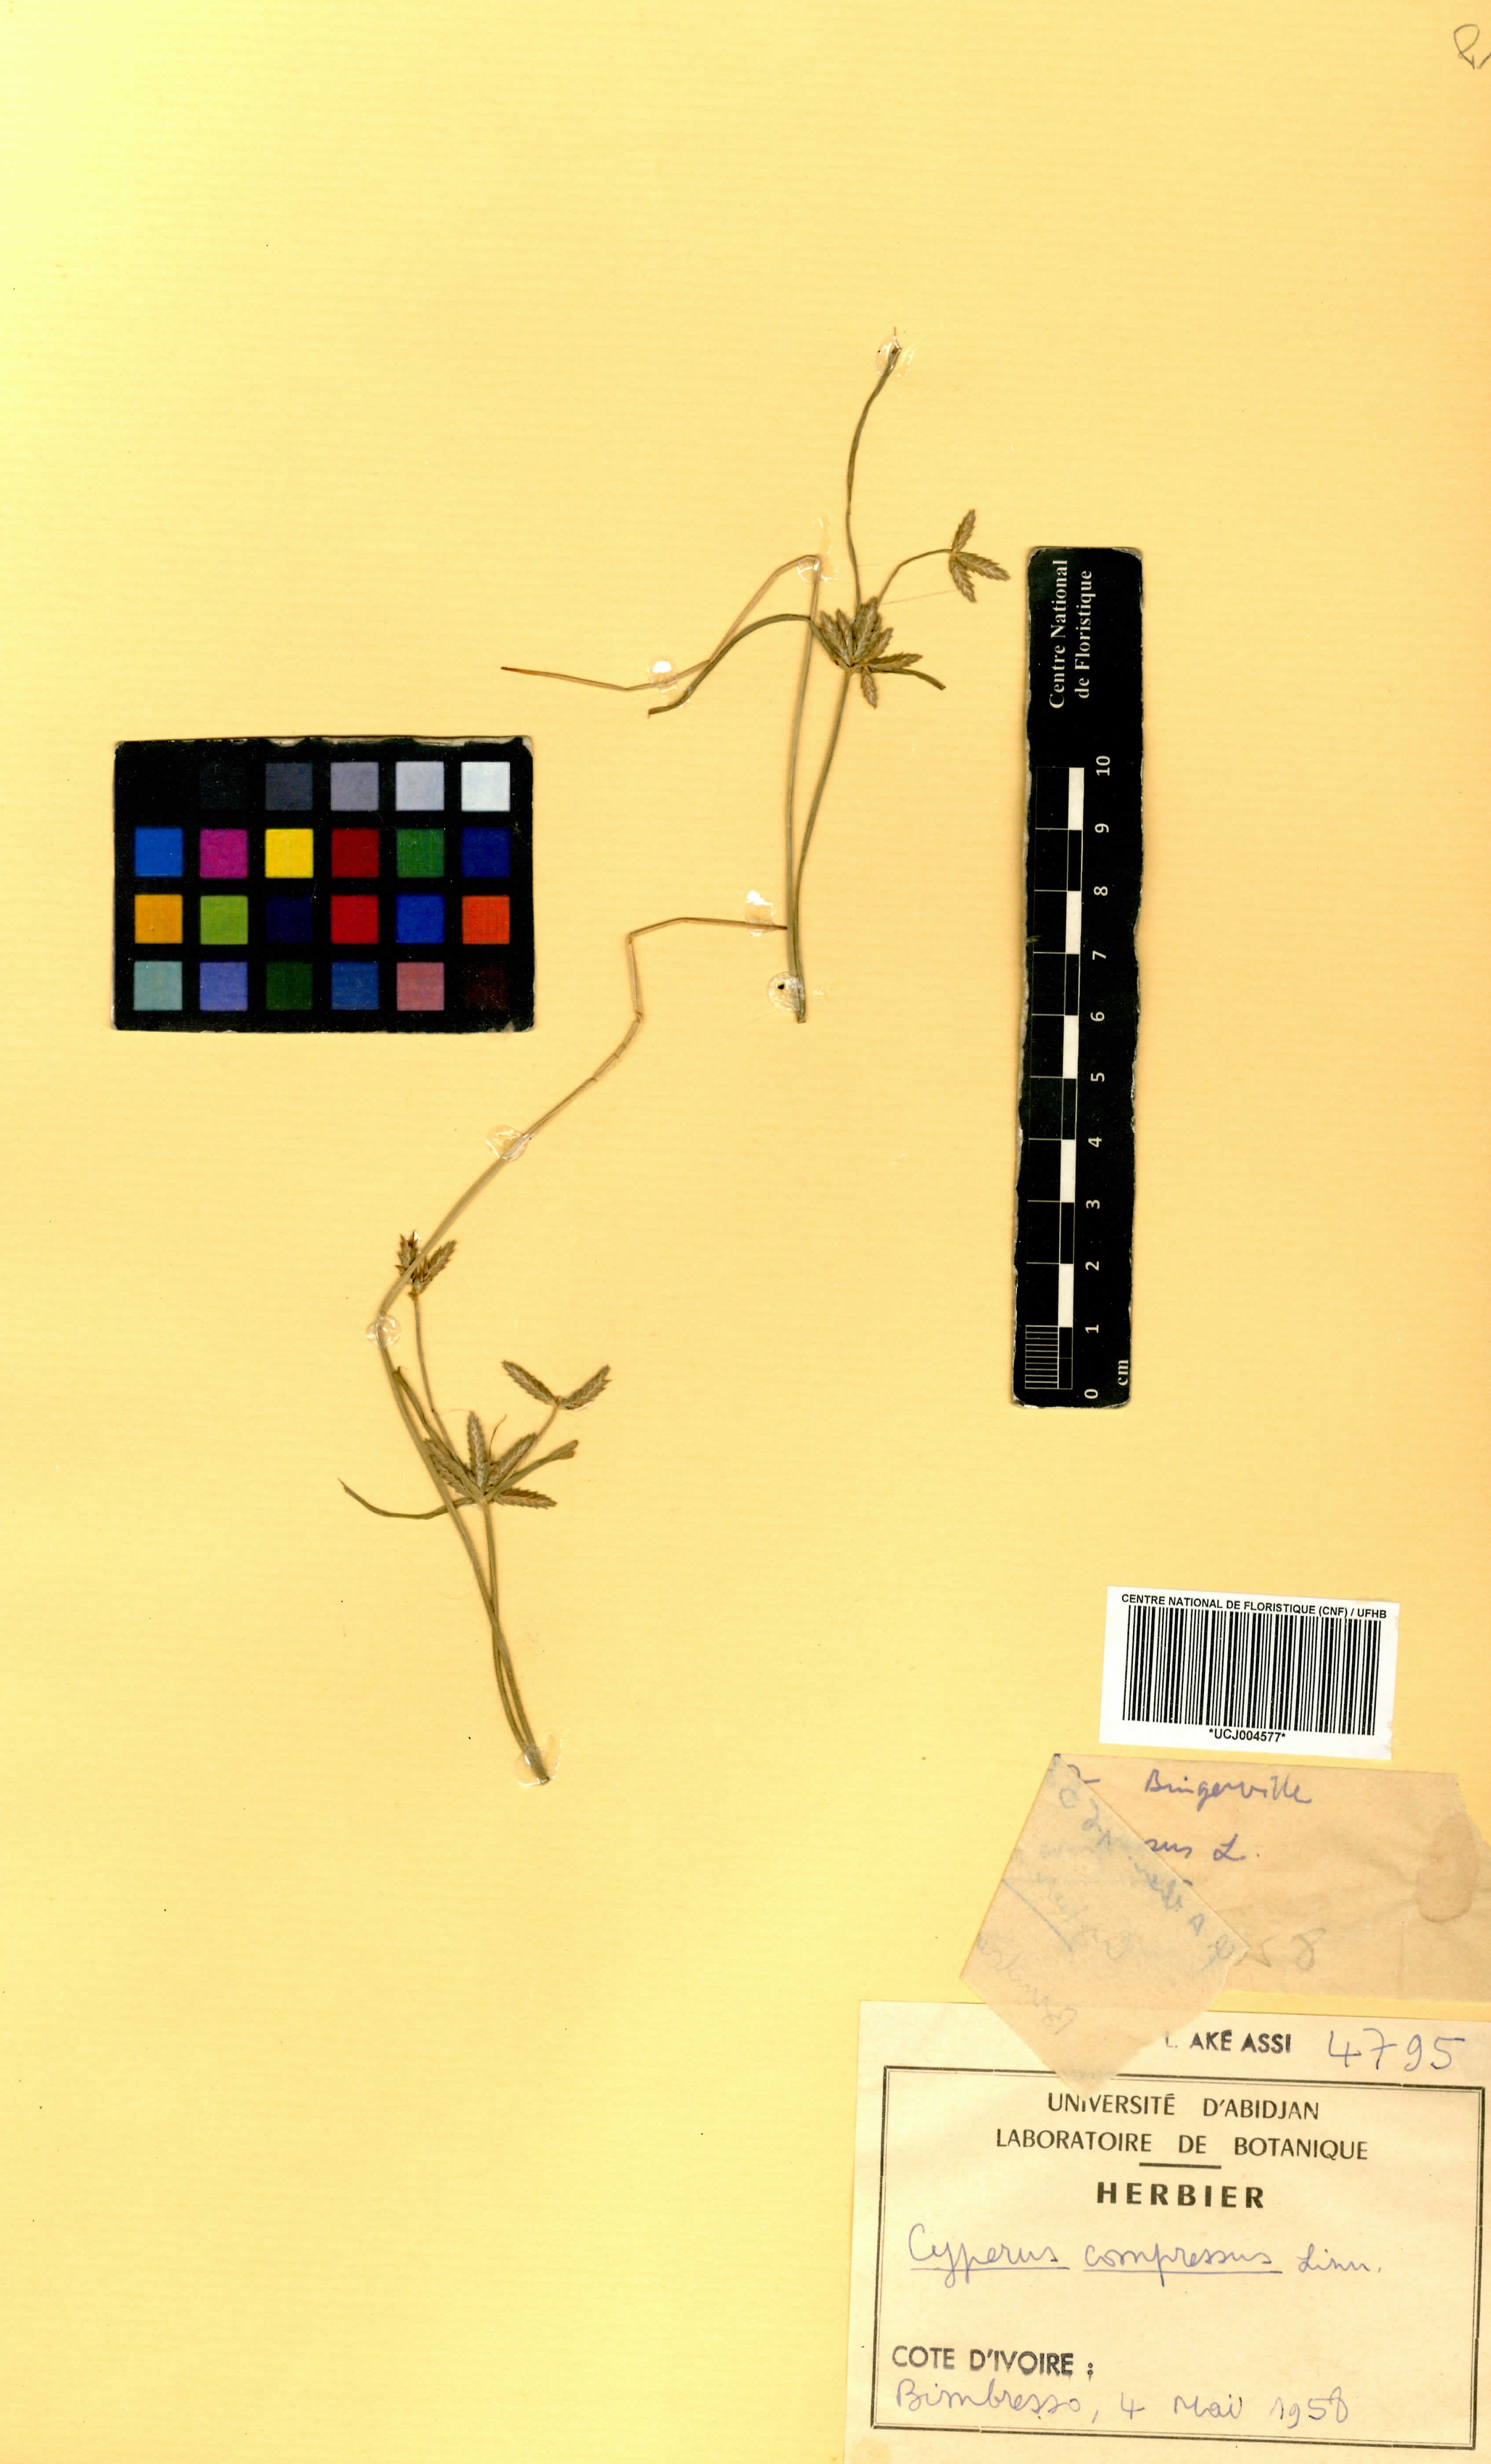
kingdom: Plantae
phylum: Tracheophyta
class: Liliopsida
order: Poales
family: Cyperaceae
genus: Cyperus
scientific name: Cyperus compressus
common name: Poorland flatsedge
